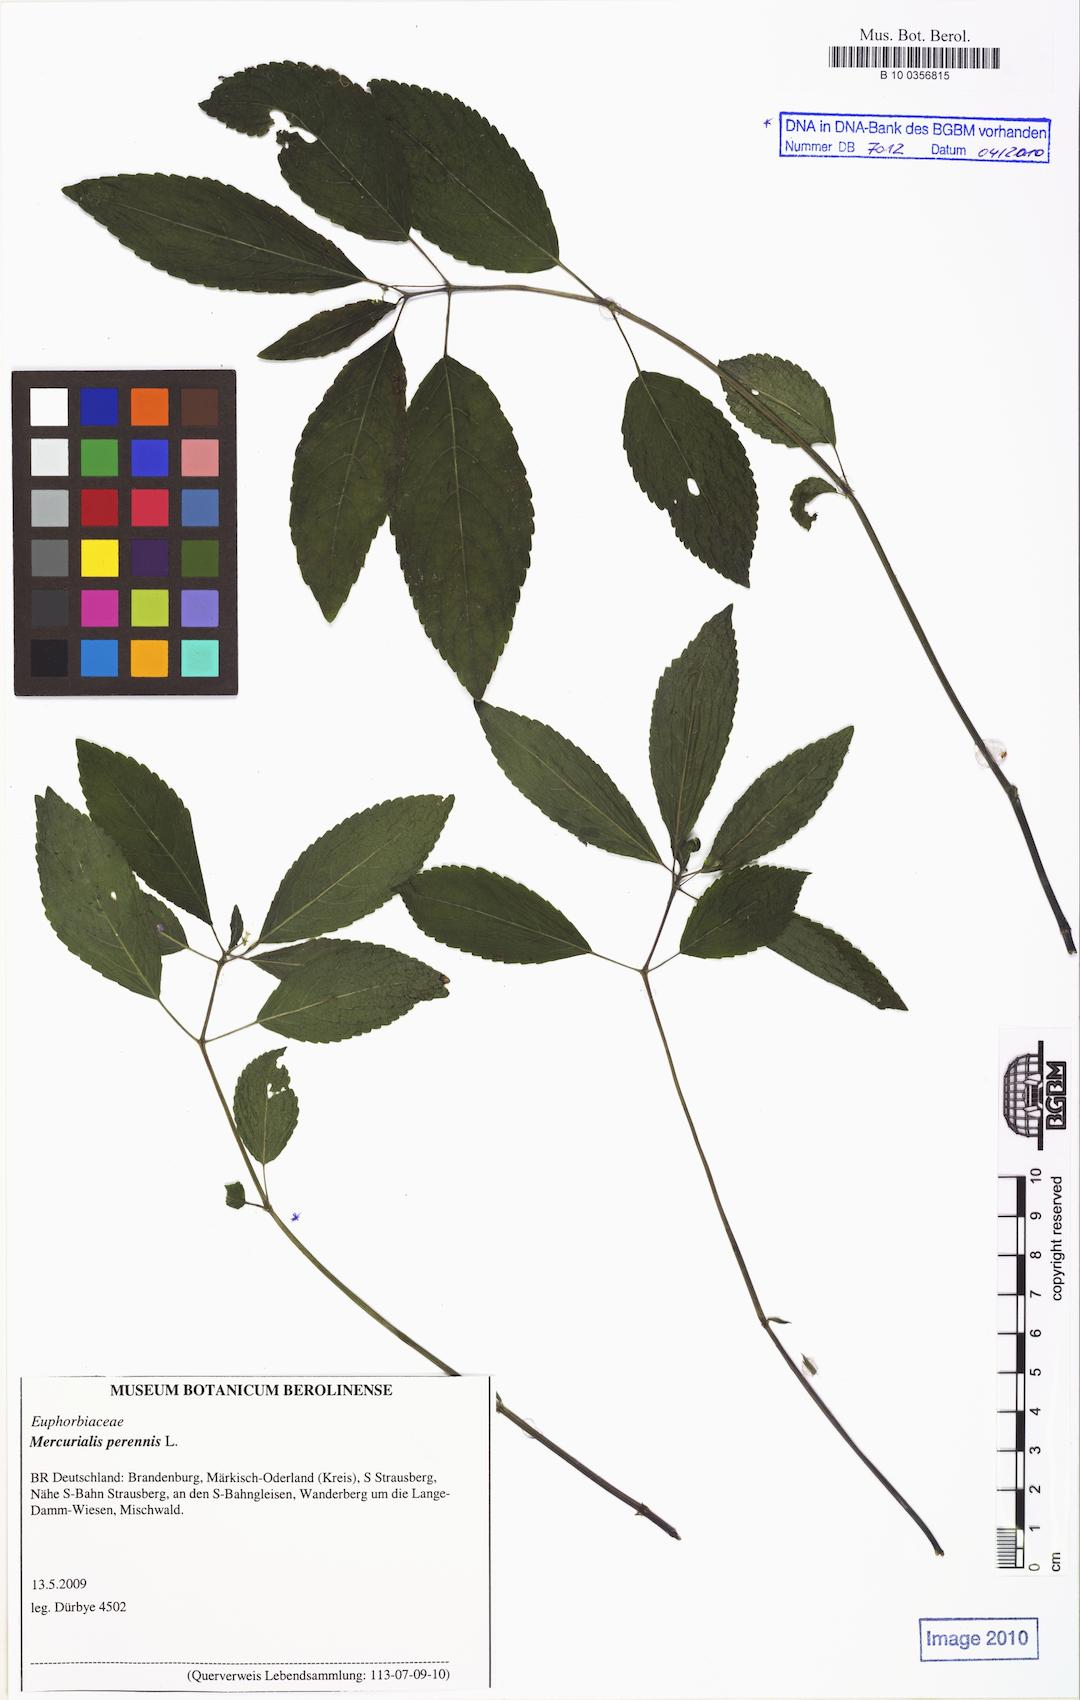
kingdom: Plantae
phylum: Tracheophyta
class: Magnoliopsida
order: Malpighiales
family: Euphorbiaceae
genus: Mercurialis
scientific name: Mercurialis perennis
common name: Dog mercury
